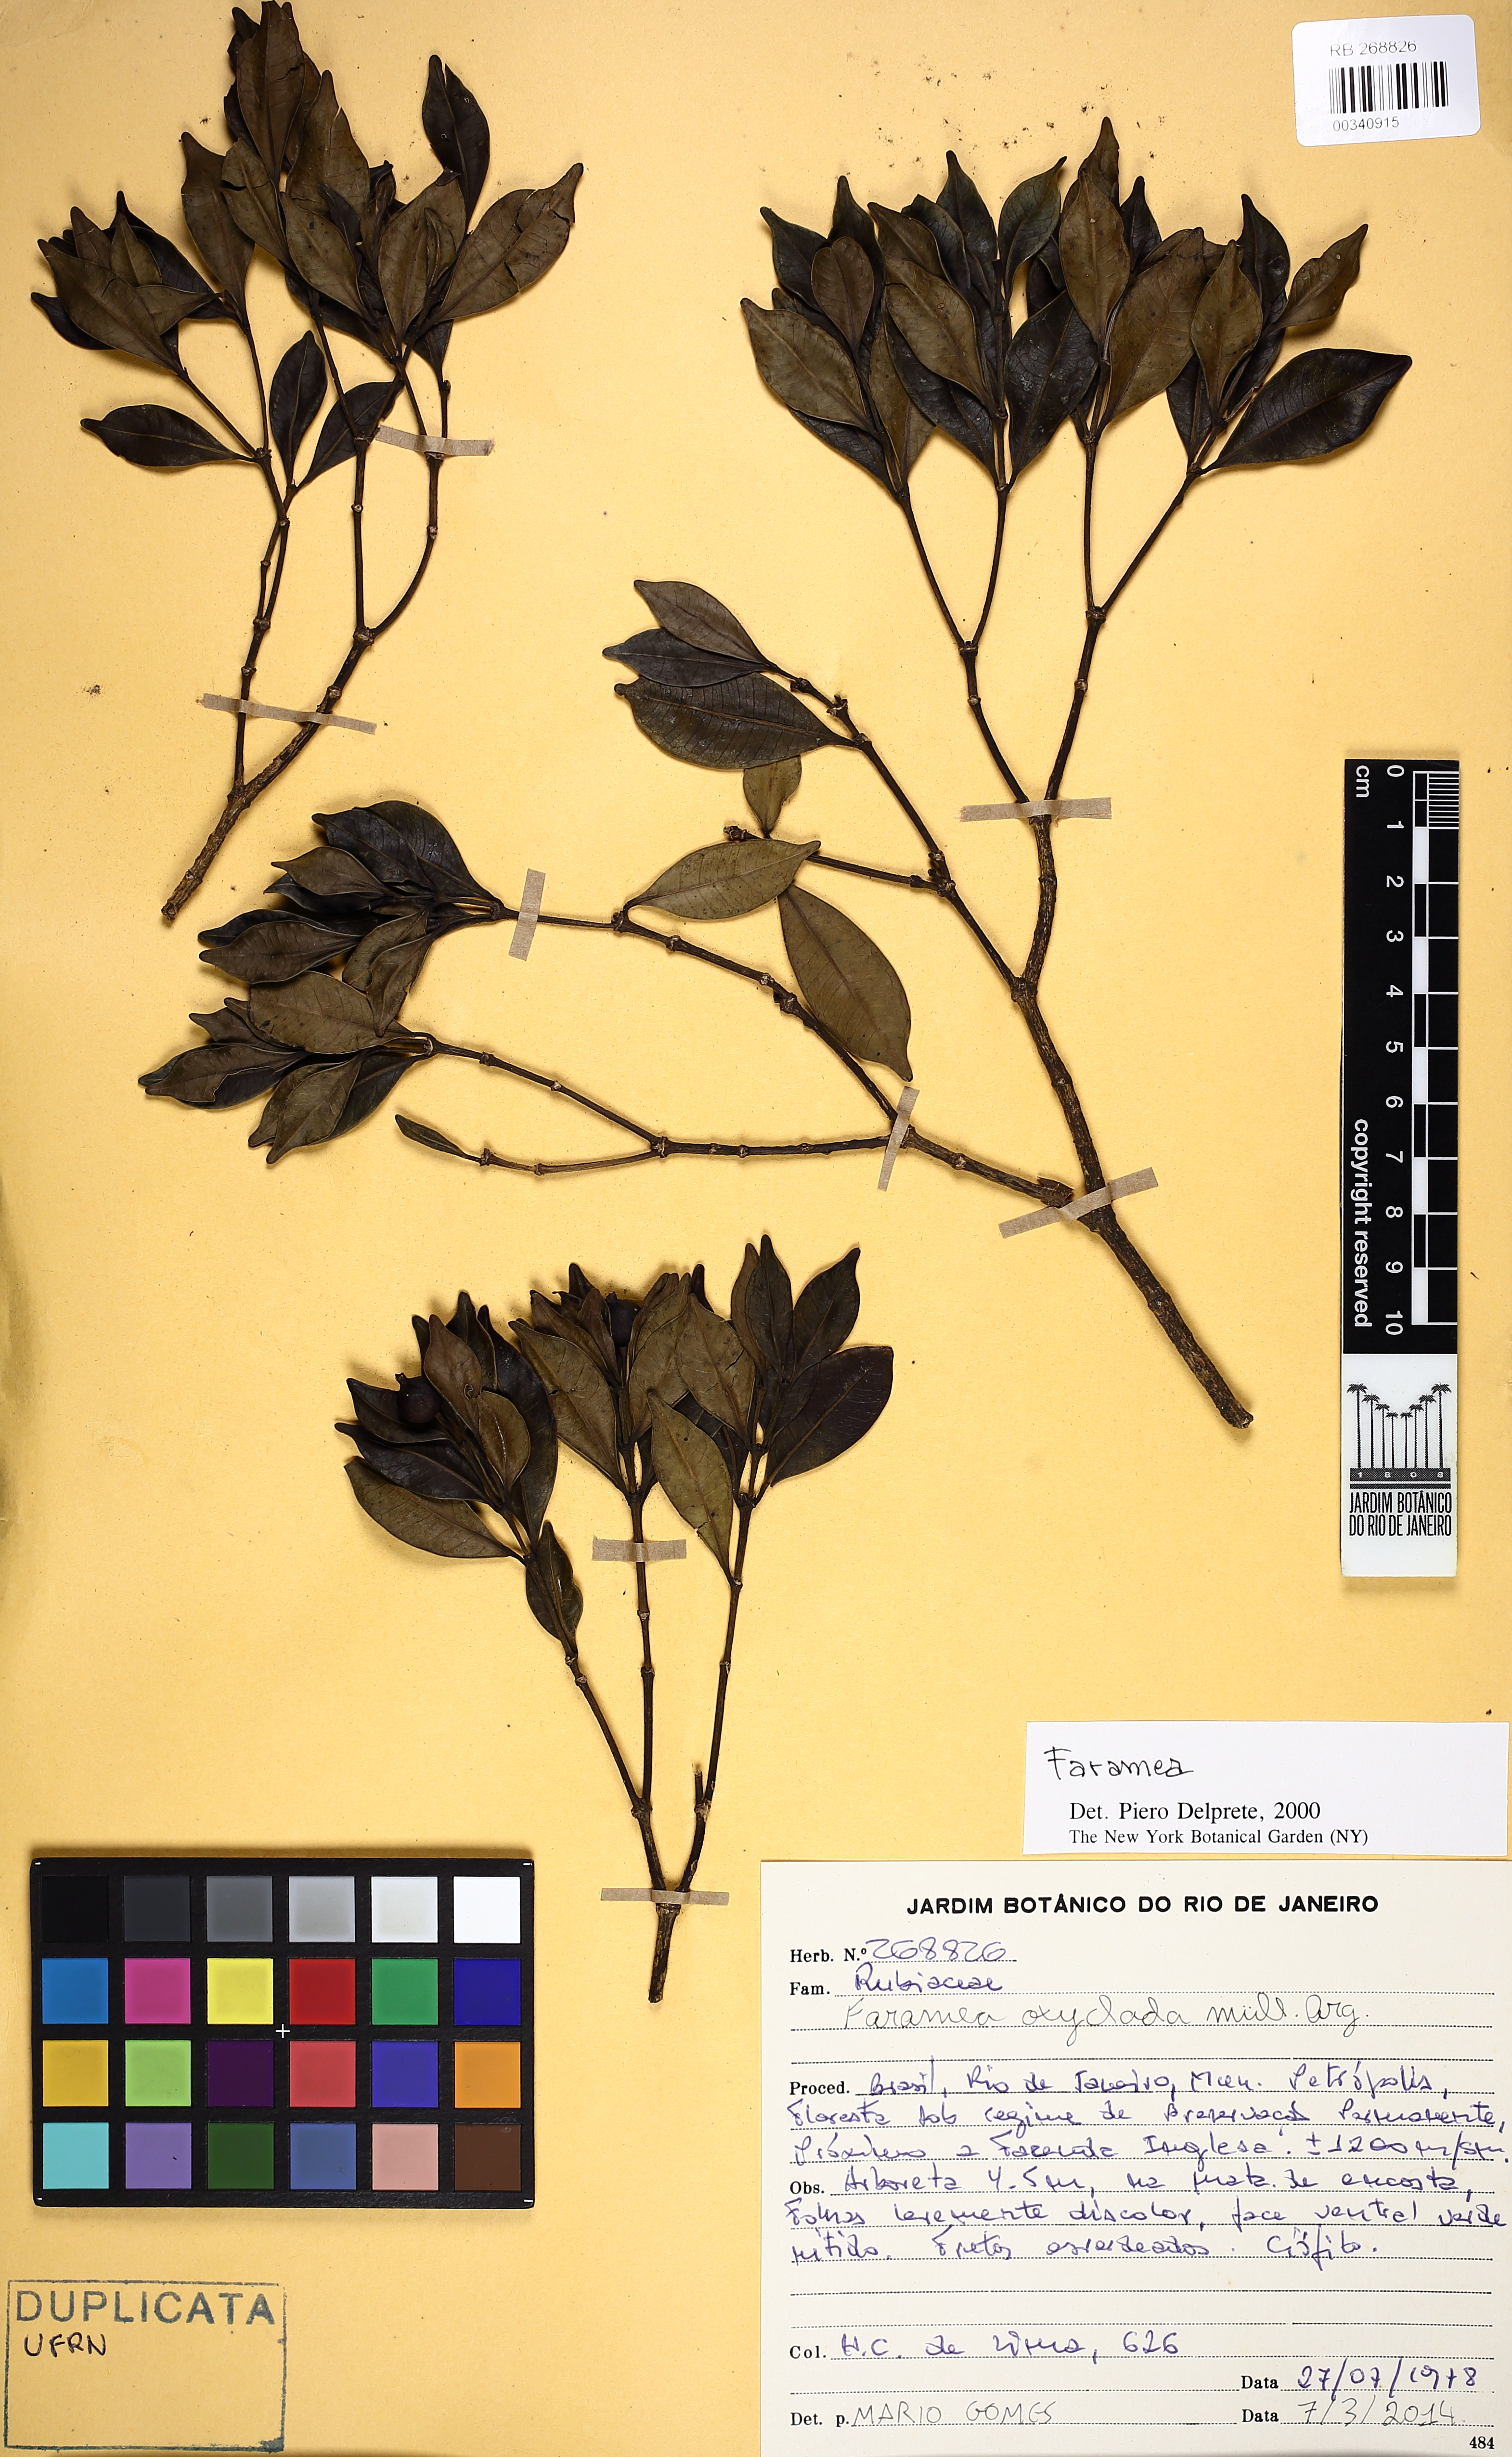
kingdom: Plantae
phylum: Tracheophyta
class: Magnoliopsida
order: Gentianales
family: Rubiaceae
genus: Faramea
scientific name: Faramea oxyclada
